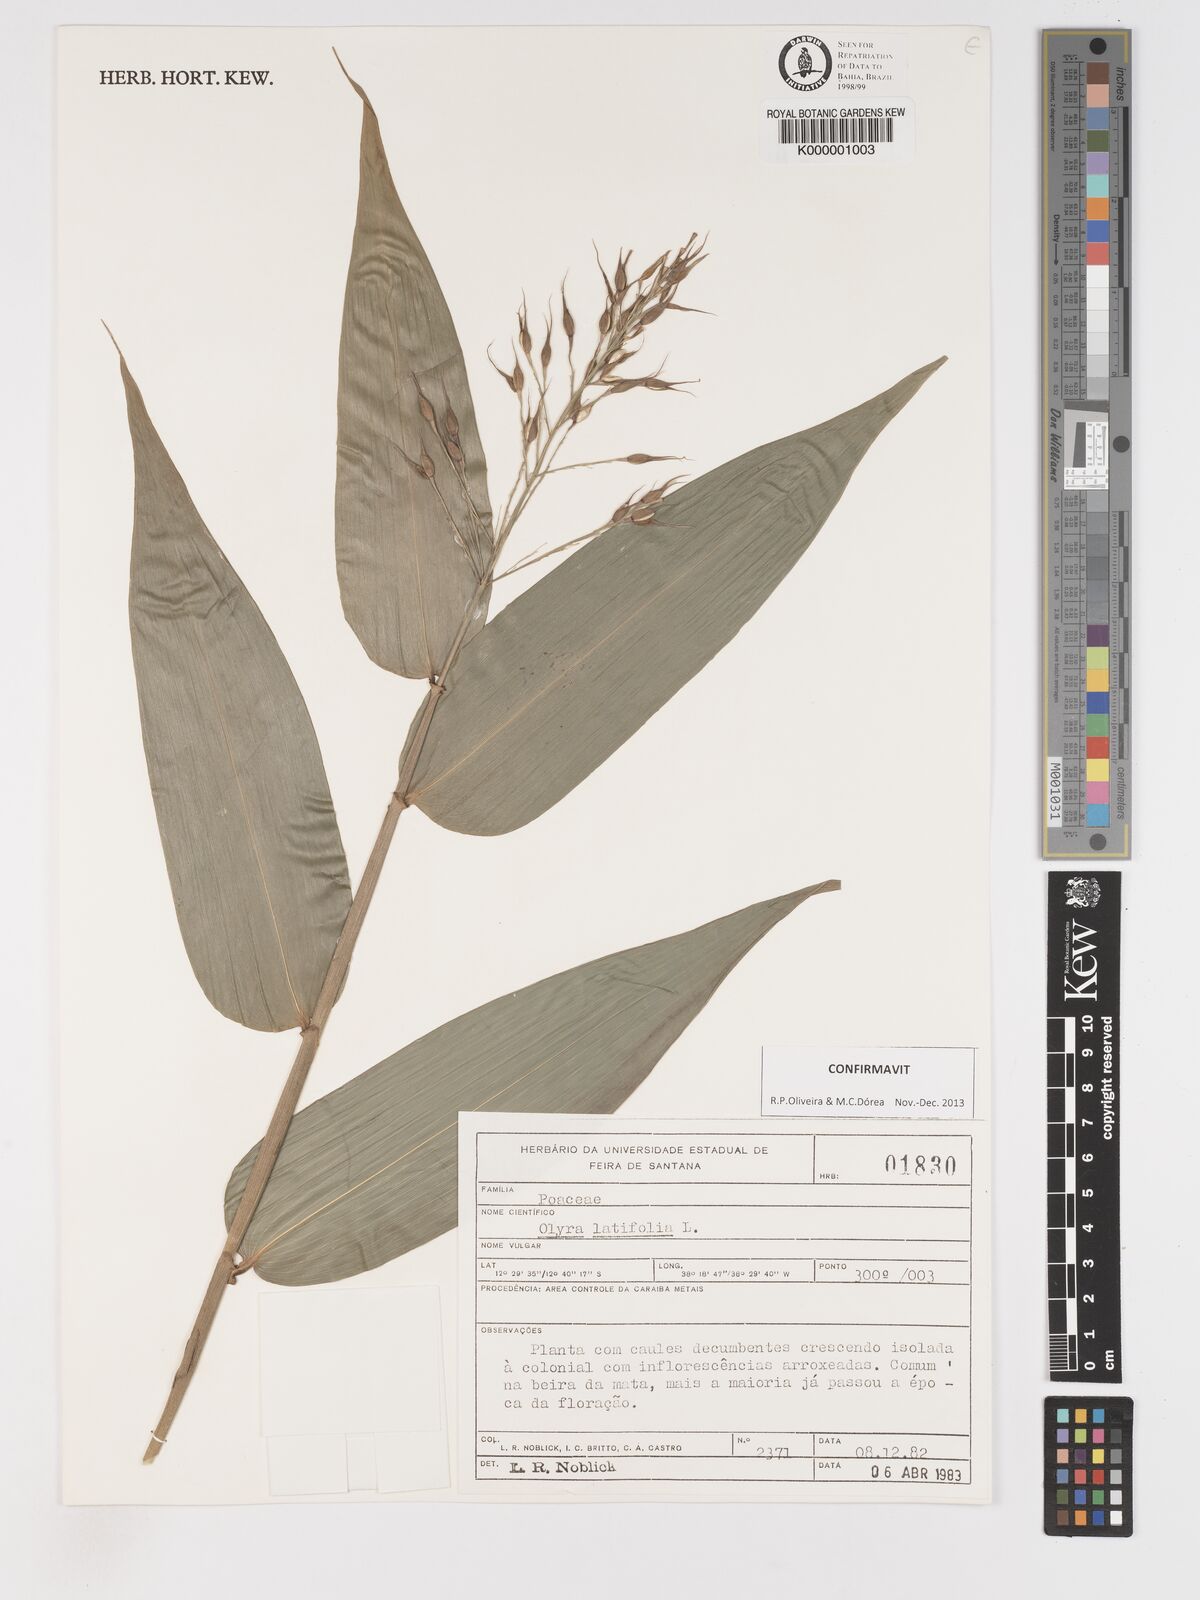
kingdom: Plantae
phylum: Tracheophyta
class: Liliopsida
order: Poales
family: Poaceae
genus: Olyra
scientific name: Olyra latifolia
